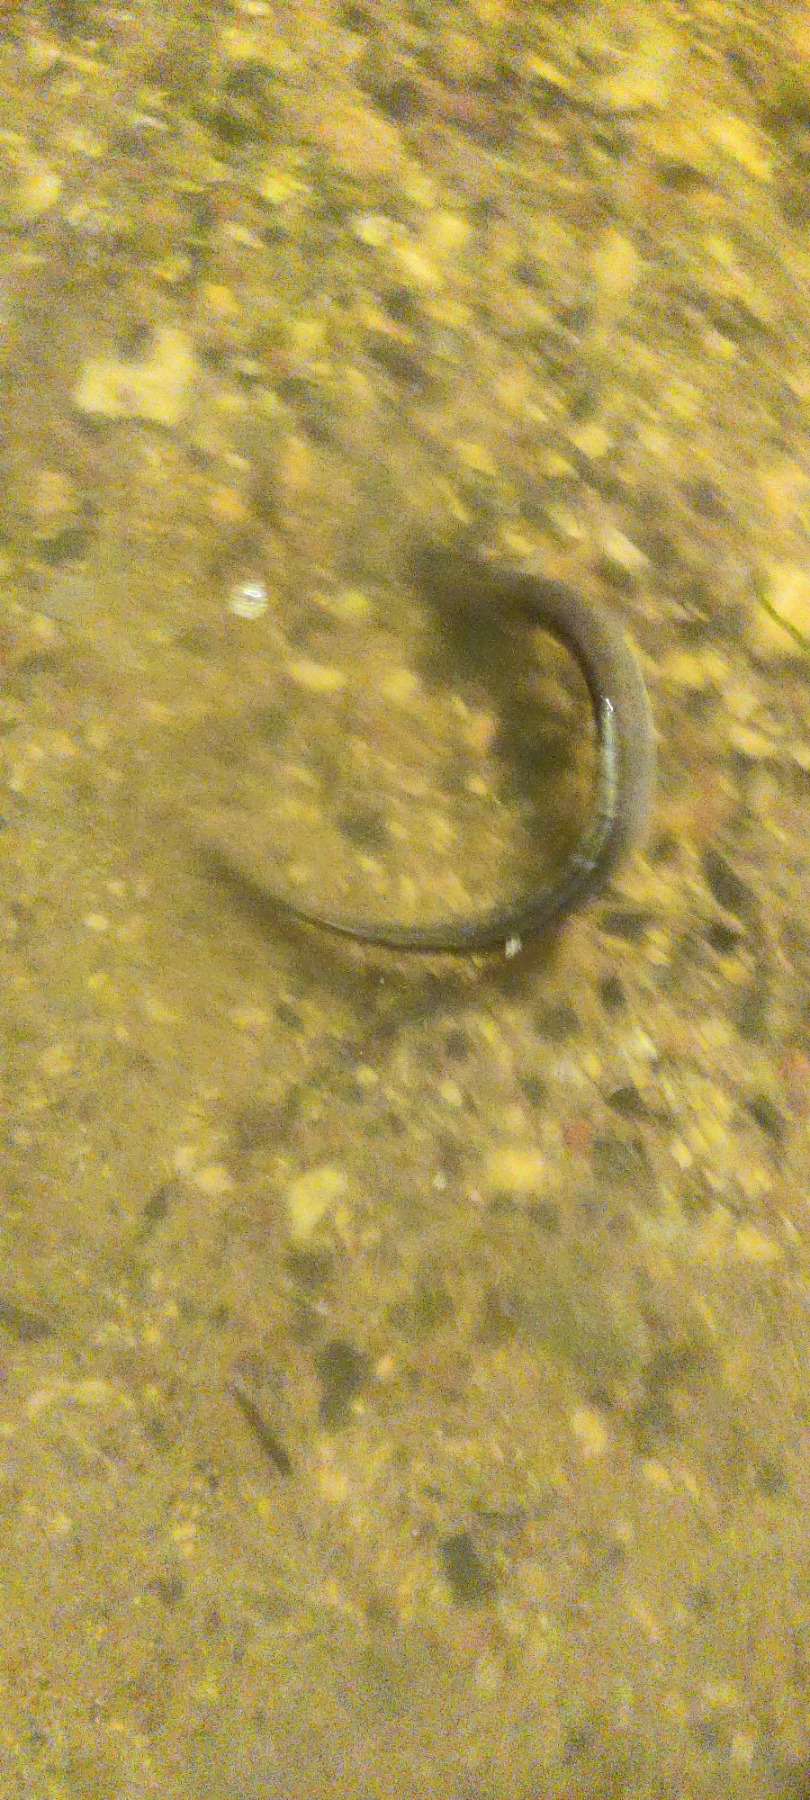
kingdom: Animalia
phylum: Chordata
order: Anguilliformes
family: Anguillidae
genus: Anguilla
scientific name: Anguilla anguilla
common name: Europæisk ål
